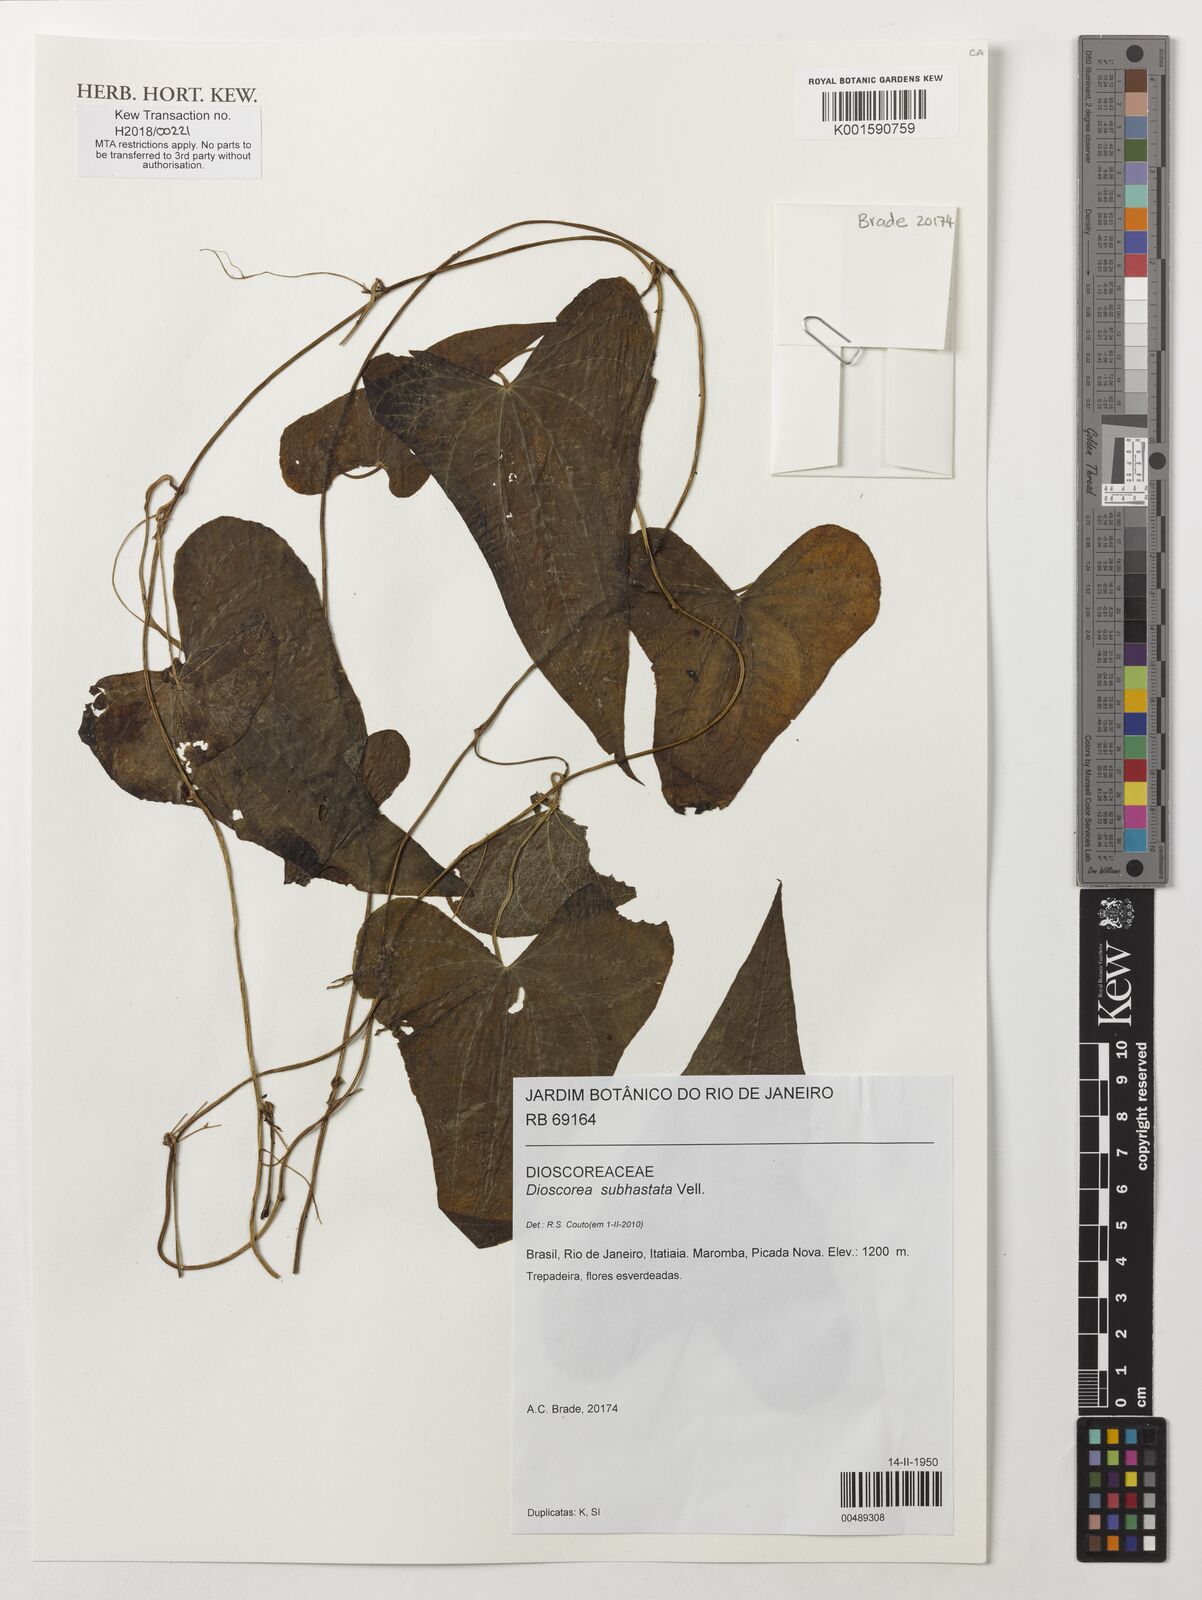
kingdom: Plantae
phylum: Tracheophyta
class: Liliopsida
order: Dioscoreales
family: Dioscoreaceae
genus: Dioscorea
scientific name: Dioscorea subhastata
